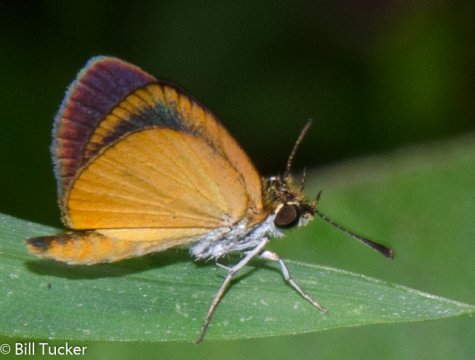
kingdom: Animalia
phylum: Arthropoda
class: Insecta
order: Lepidoptera
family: Hesperiidae
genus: Ancyloxypha
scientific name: Ancyloxypha numitor
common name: Least Skipper
